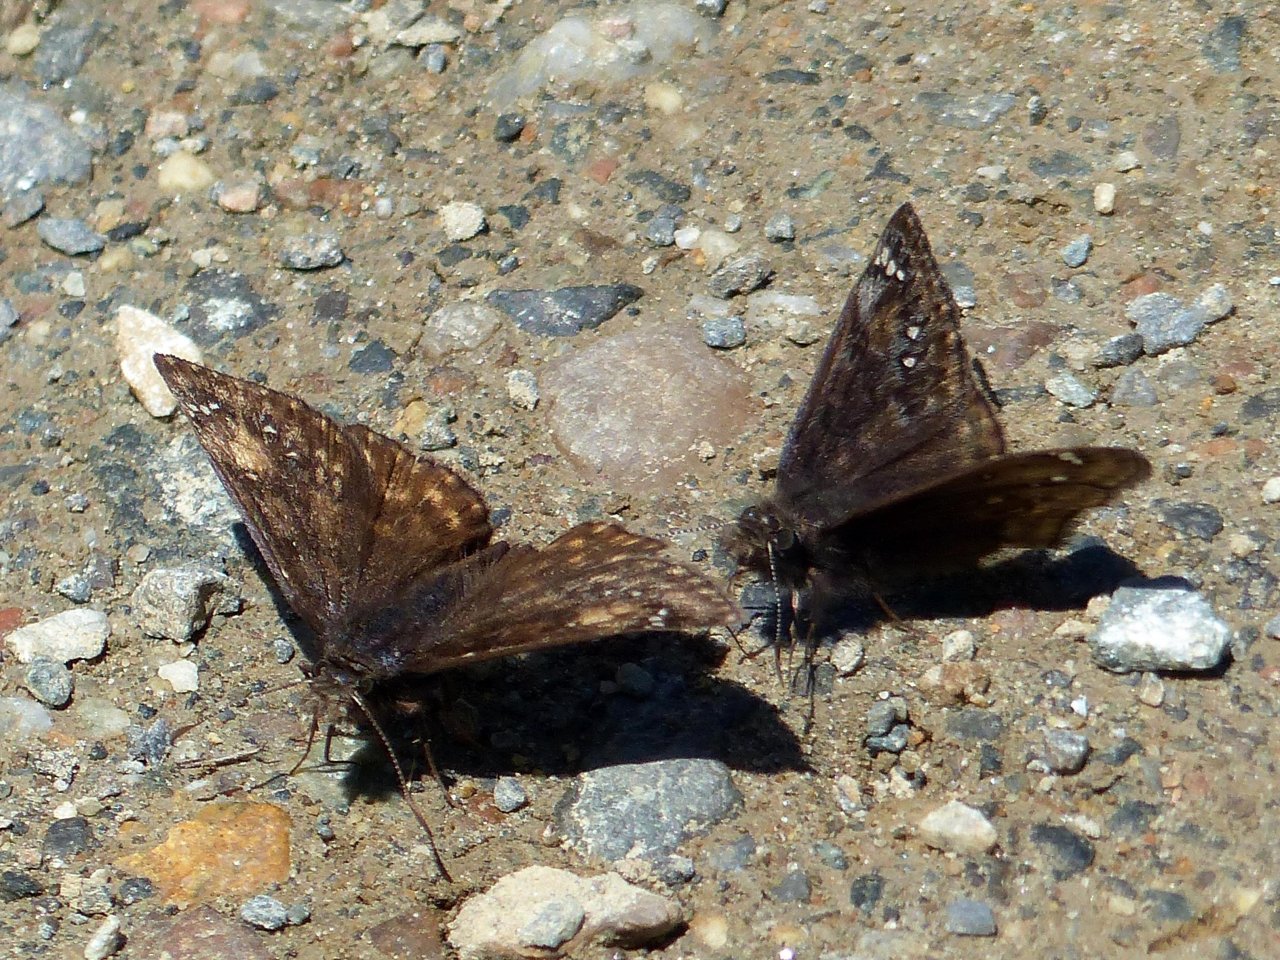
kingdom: Animalia
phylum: Arthropoda
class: Insecta
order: Lepidoptera
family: Hesperiidae
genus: Gesta
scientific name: Gesta
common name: Juvenal's Duskywing
